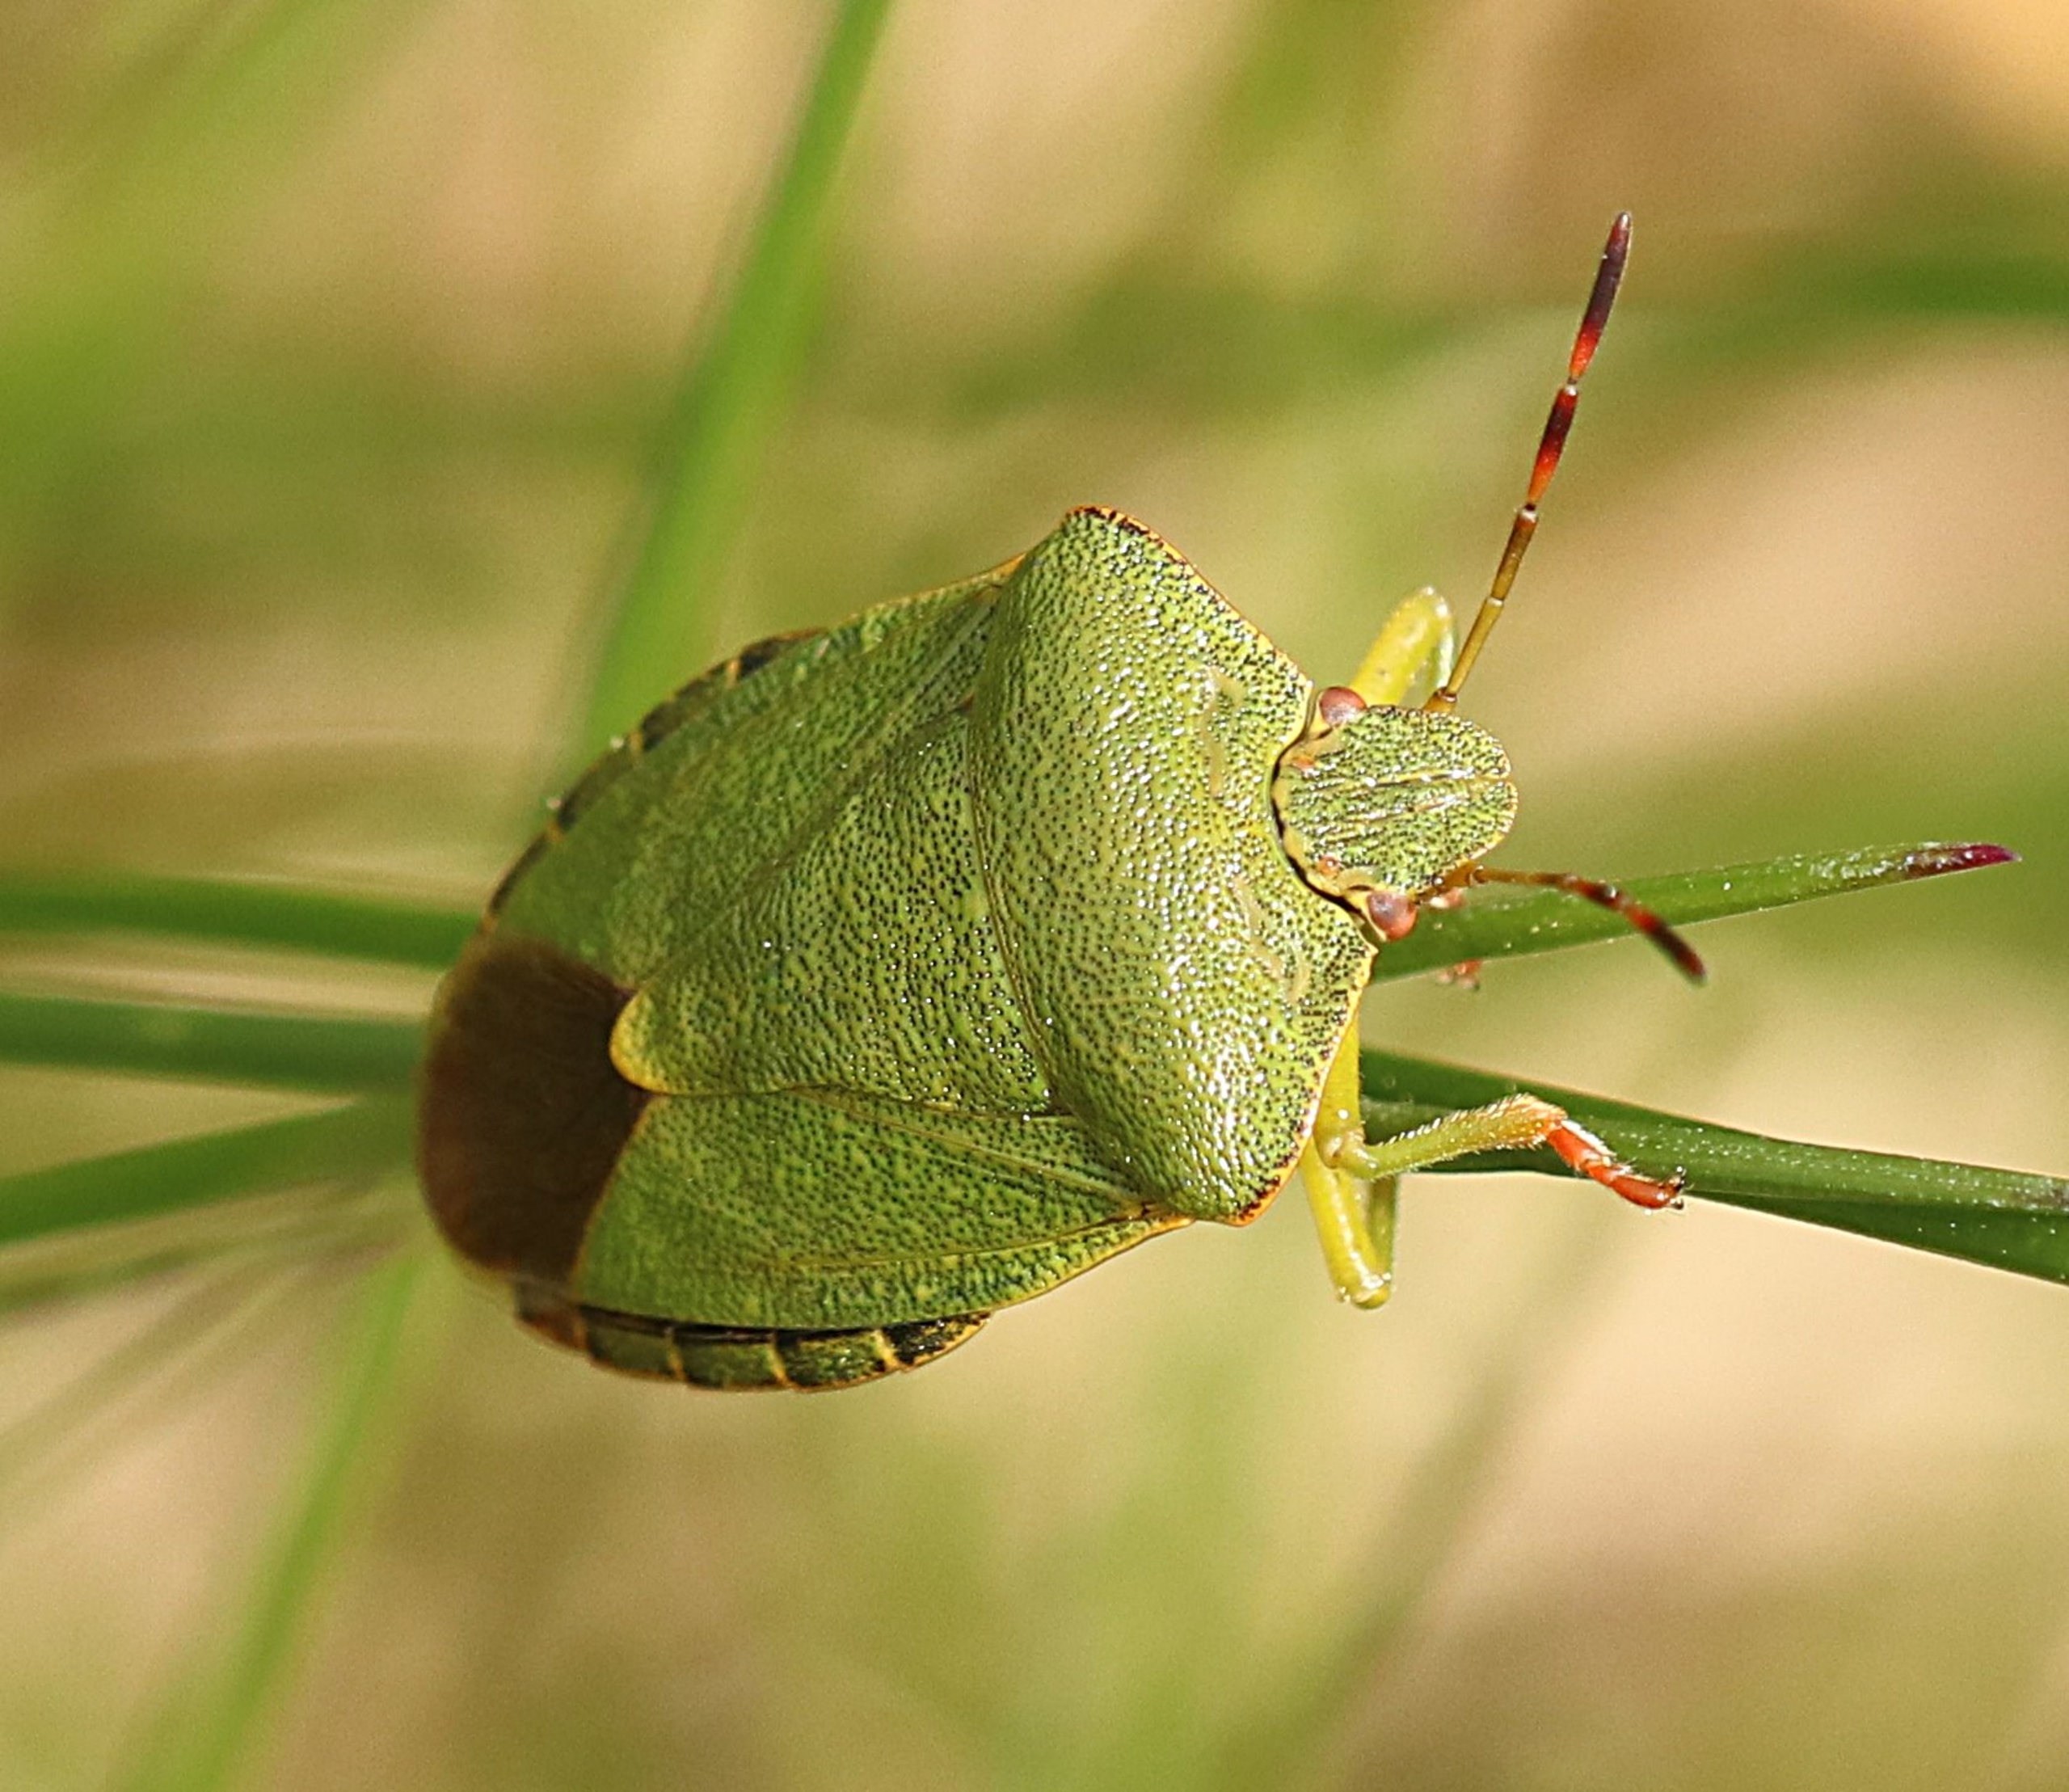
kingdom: Animalia
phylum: Arthropoda
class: Insecta
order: Hemiptera
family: Pentatomidae
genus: Palomena
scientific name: Palomena prasina
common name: Grøn bredtæge
